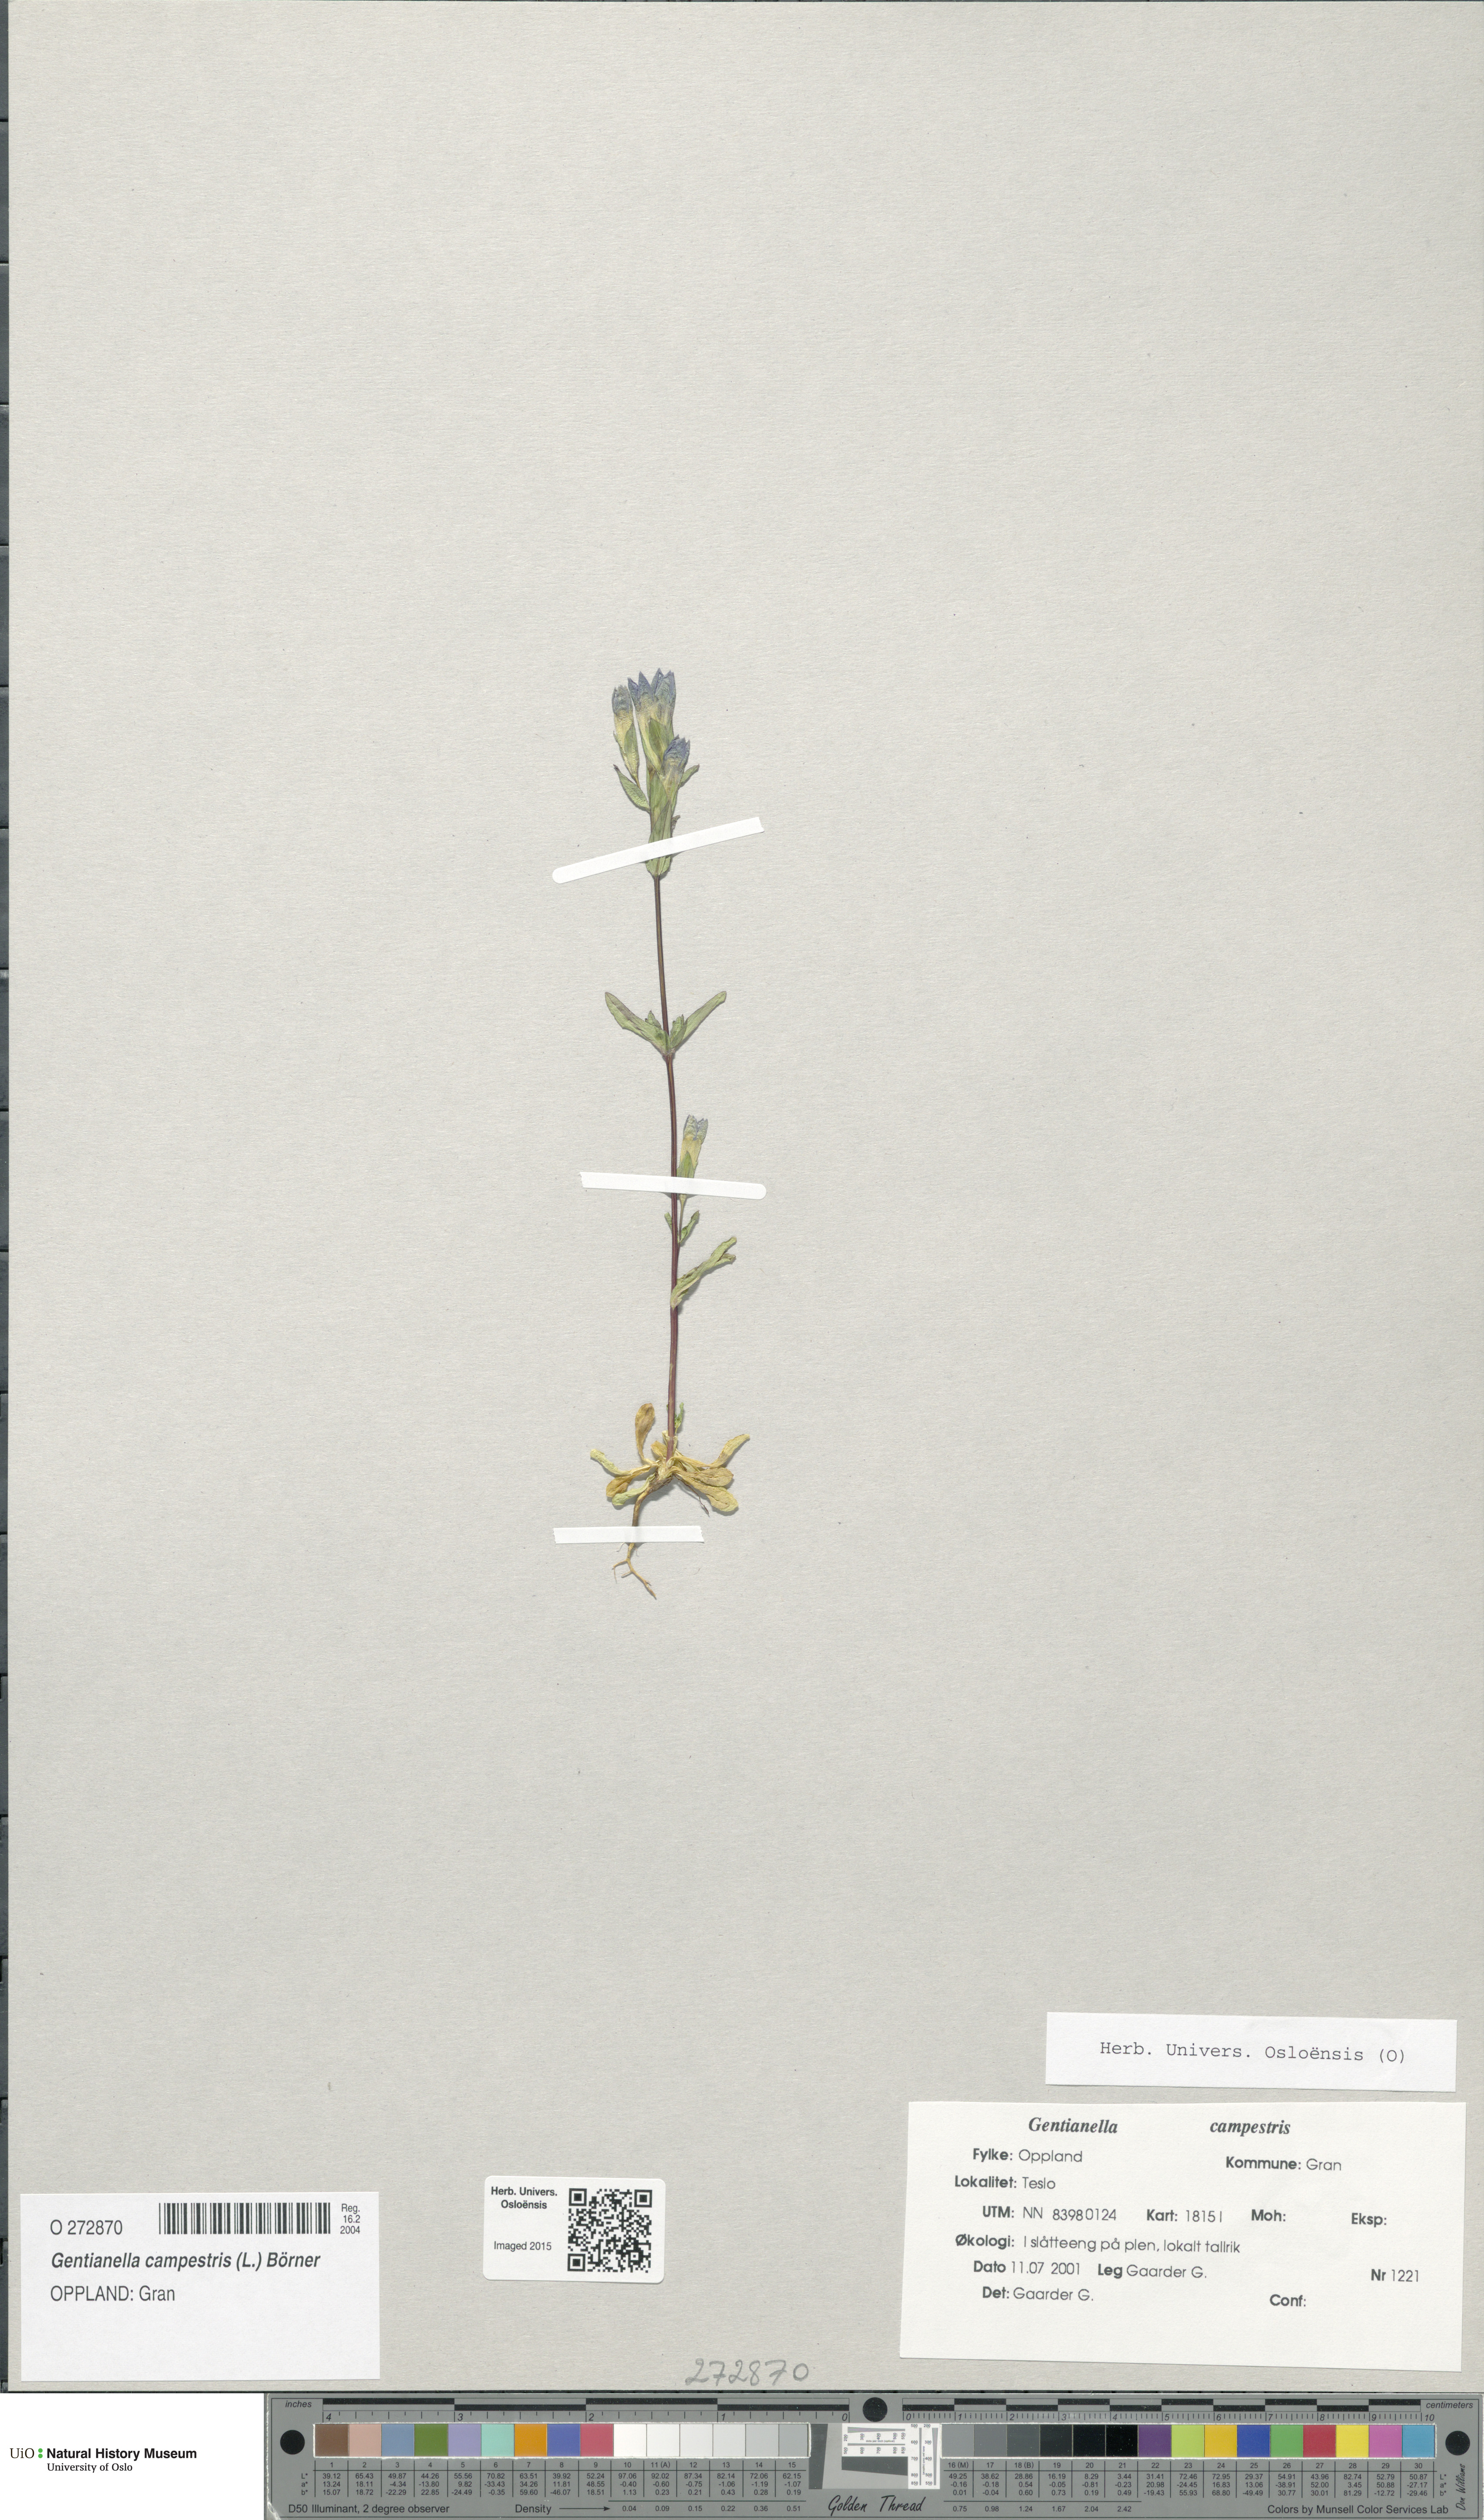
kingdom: Plantae
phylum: Tracheophyta
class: Magnoliopsida
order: Gentianales
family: Gentianaceae
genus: Gentianella
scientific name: Gentianella campestris
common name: Field gentian
